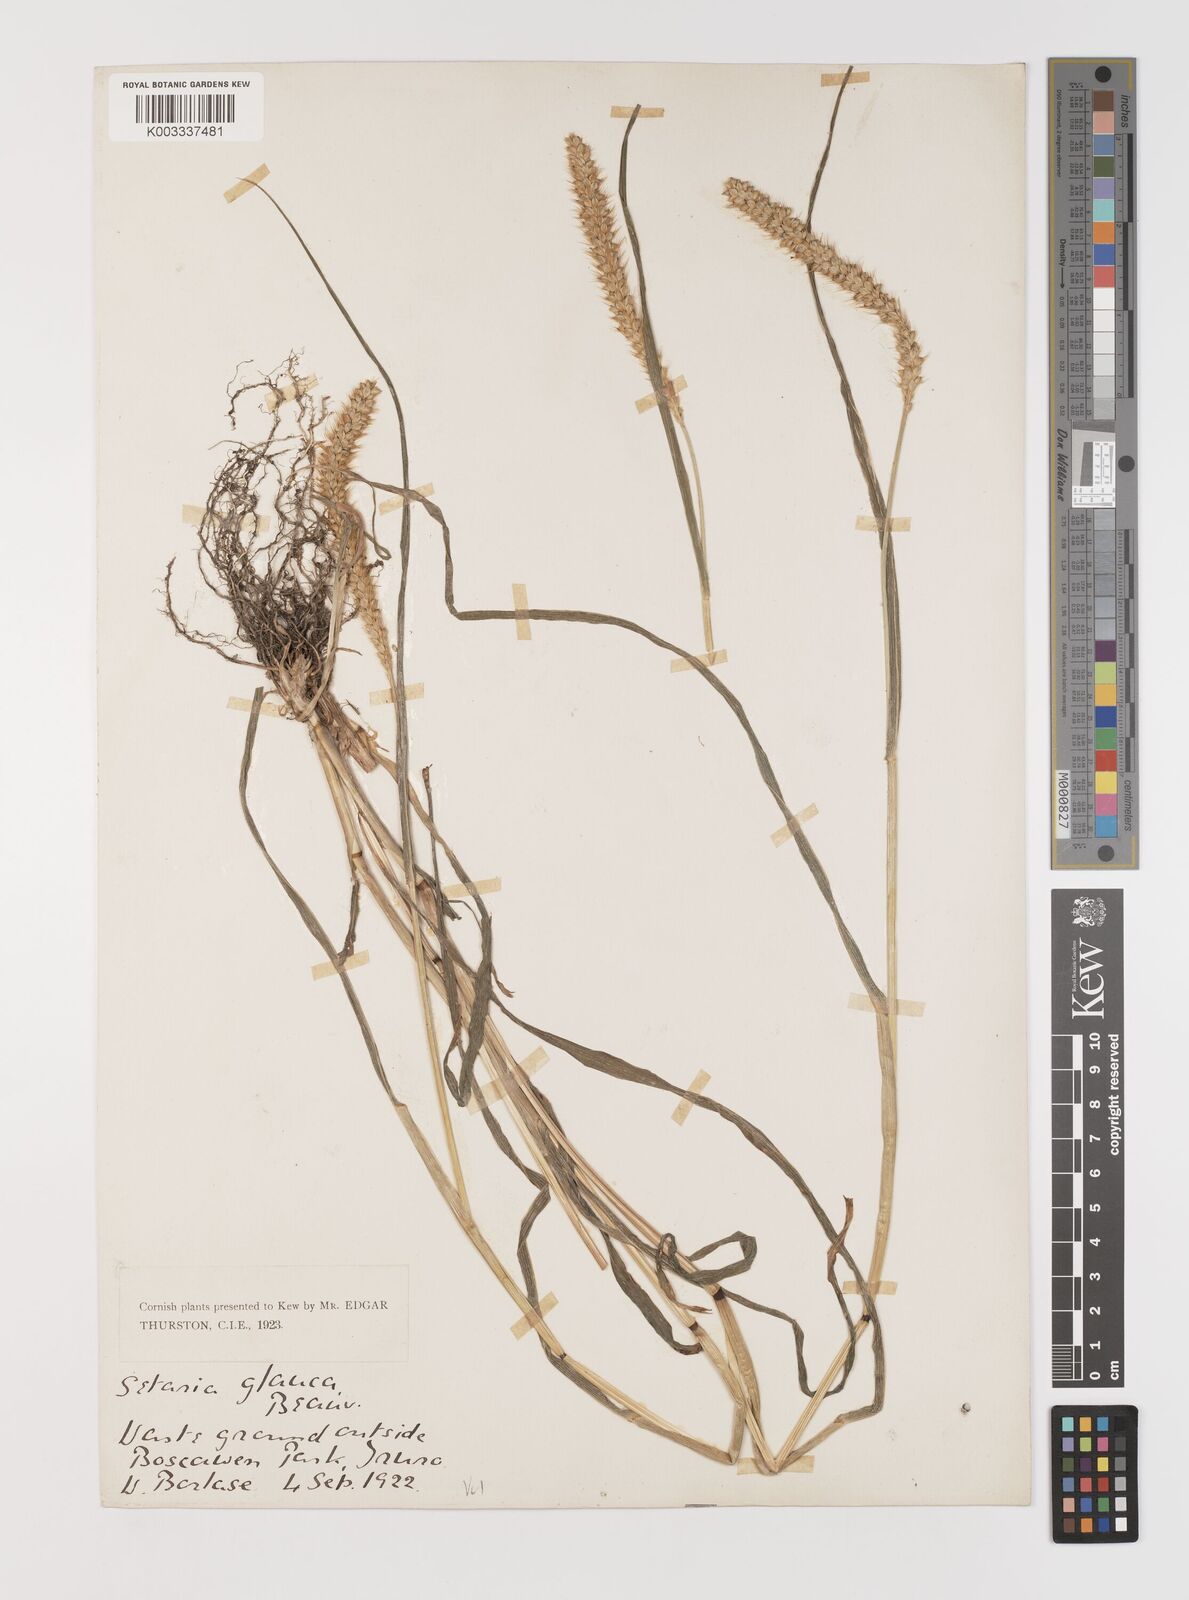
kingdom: Plantae
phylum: Tracheophyta
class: Liliopsida
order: Poales
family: Poaceae
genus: Setaria
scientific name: Setaria pumila
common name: Yellow bristle-grass
